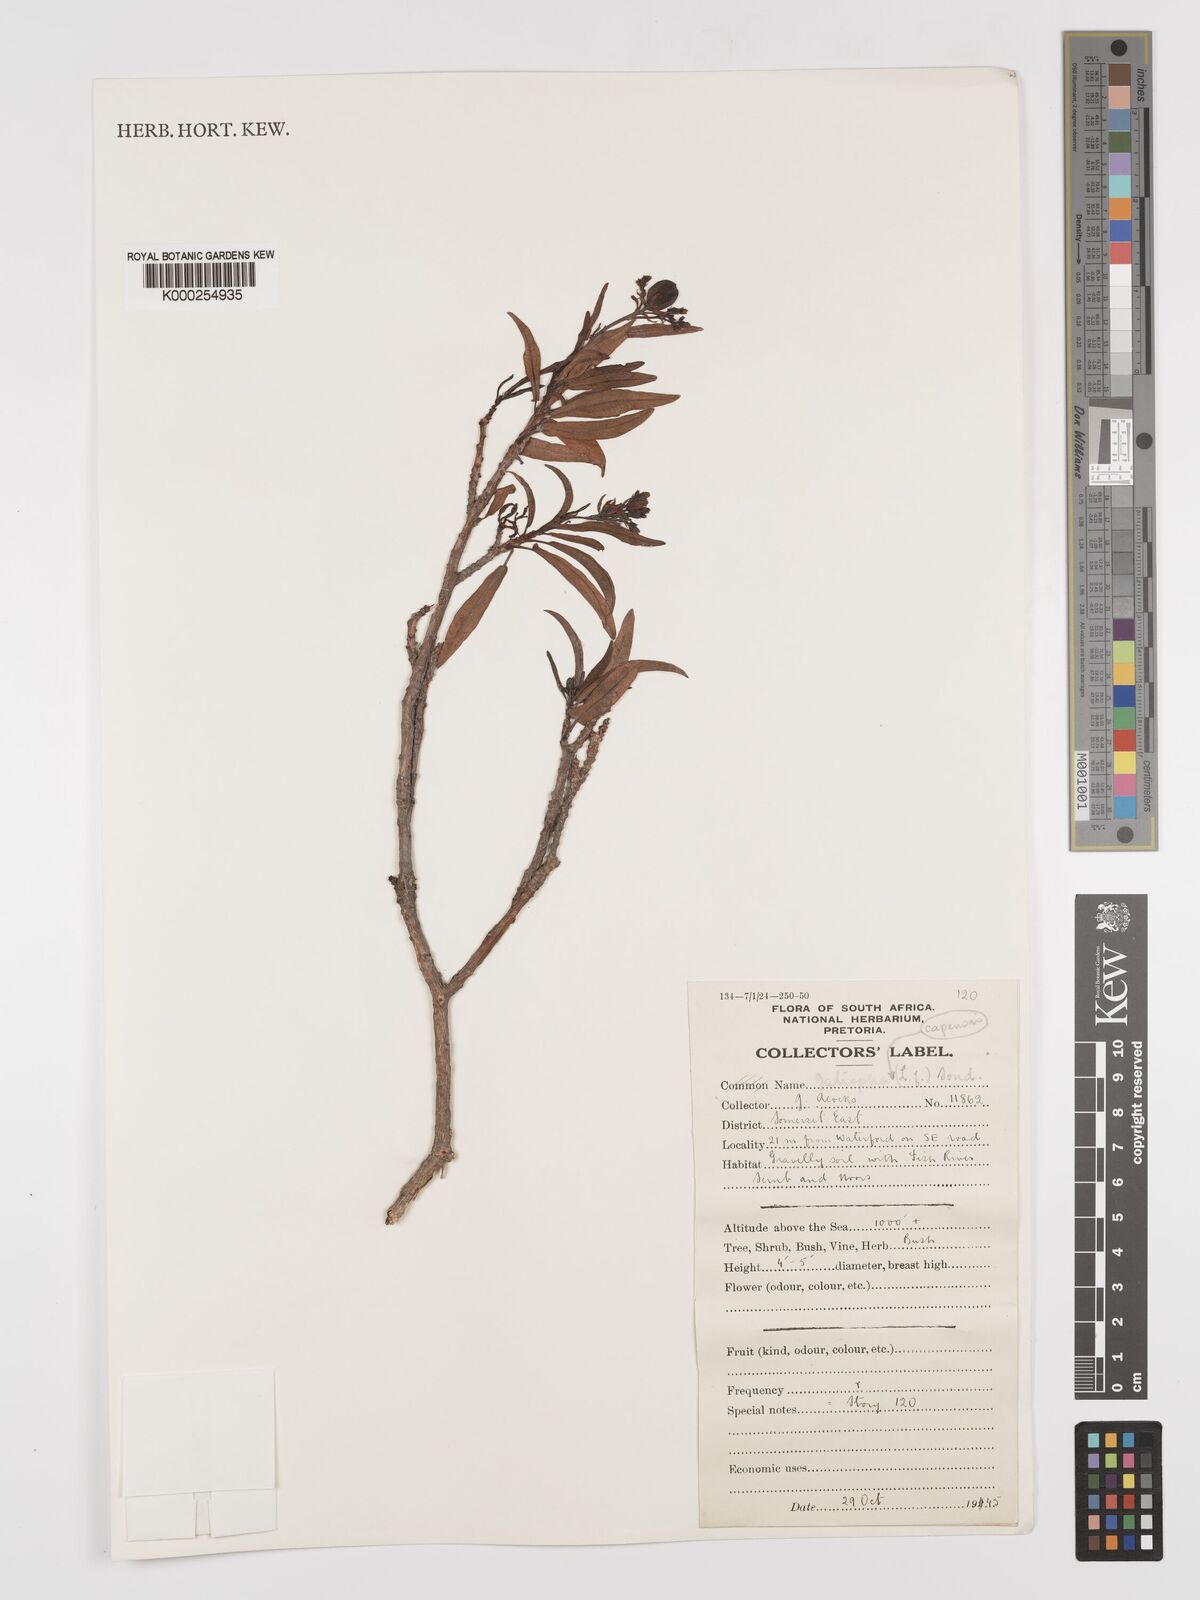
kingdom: Plantae
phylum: Tracheophyta
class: Magnoliopsida
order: Malpighiales
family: Euphorbiaceae
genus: Jatropha
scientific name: Jatropha capensis
